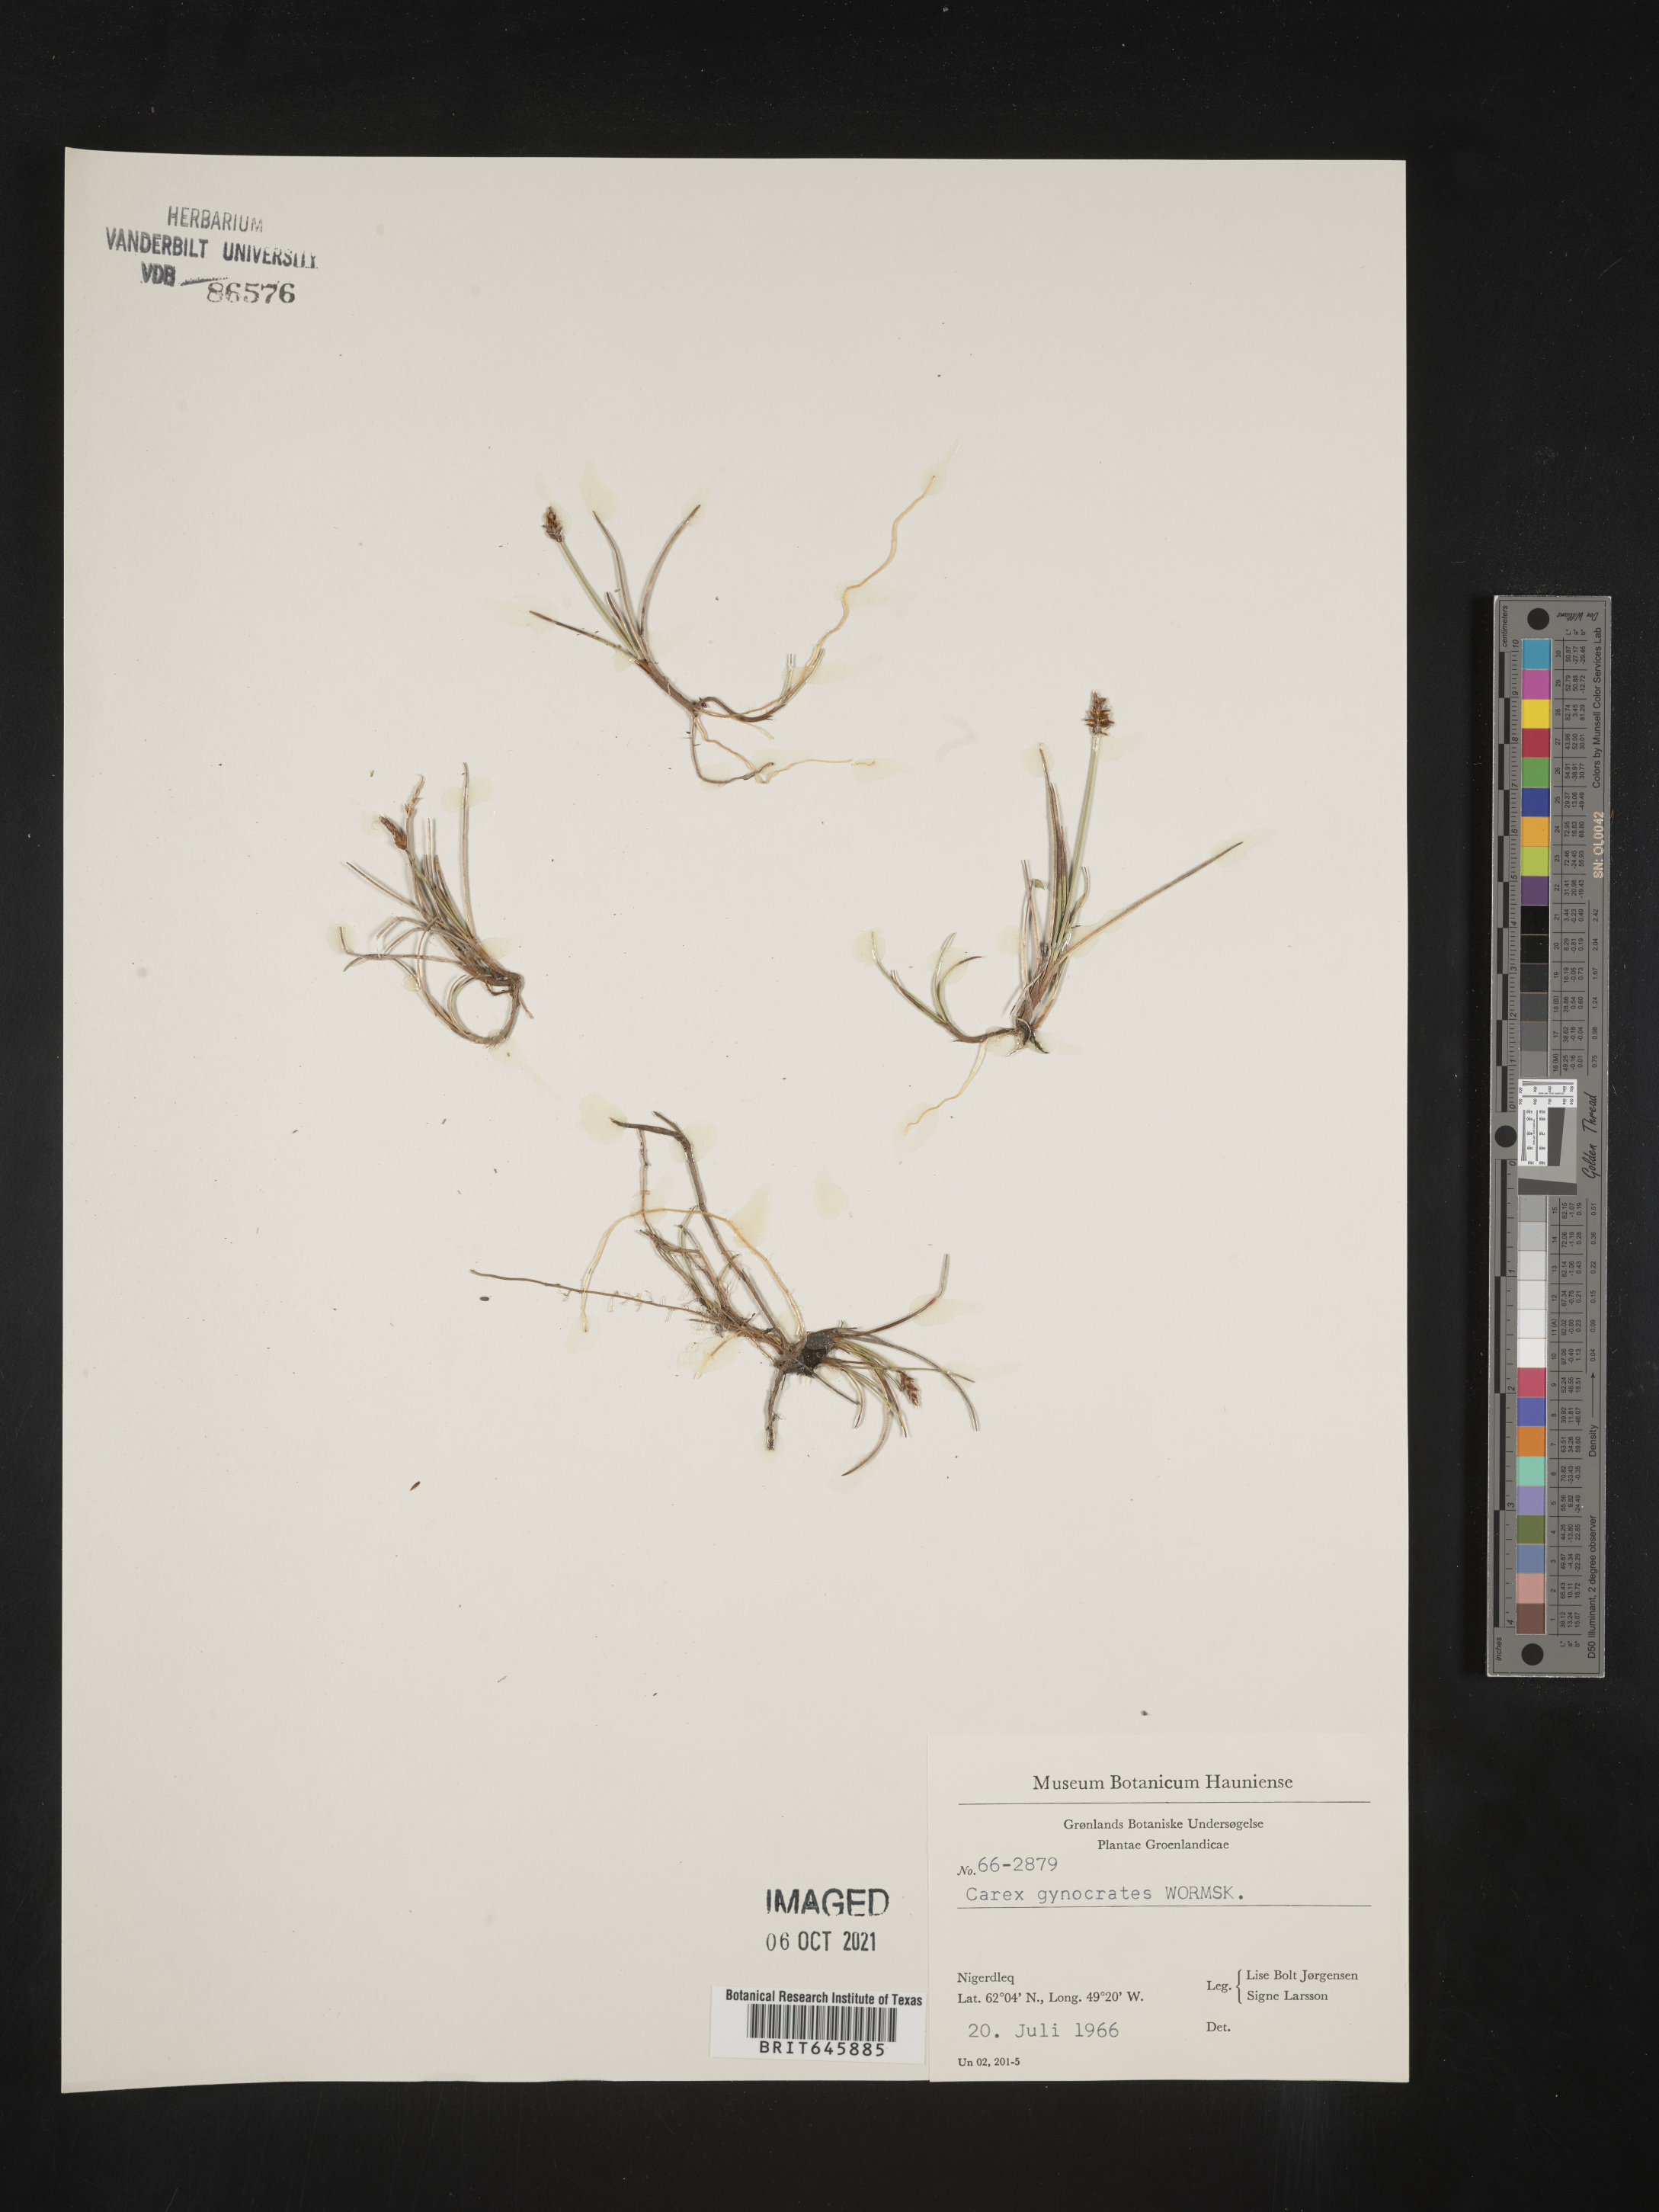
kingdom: Plantae
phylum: Tracheophyta
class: Liliopsida
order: Poales
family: Cyperaceae
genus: Carex
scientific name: Carex nardina
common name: Nard sedge
